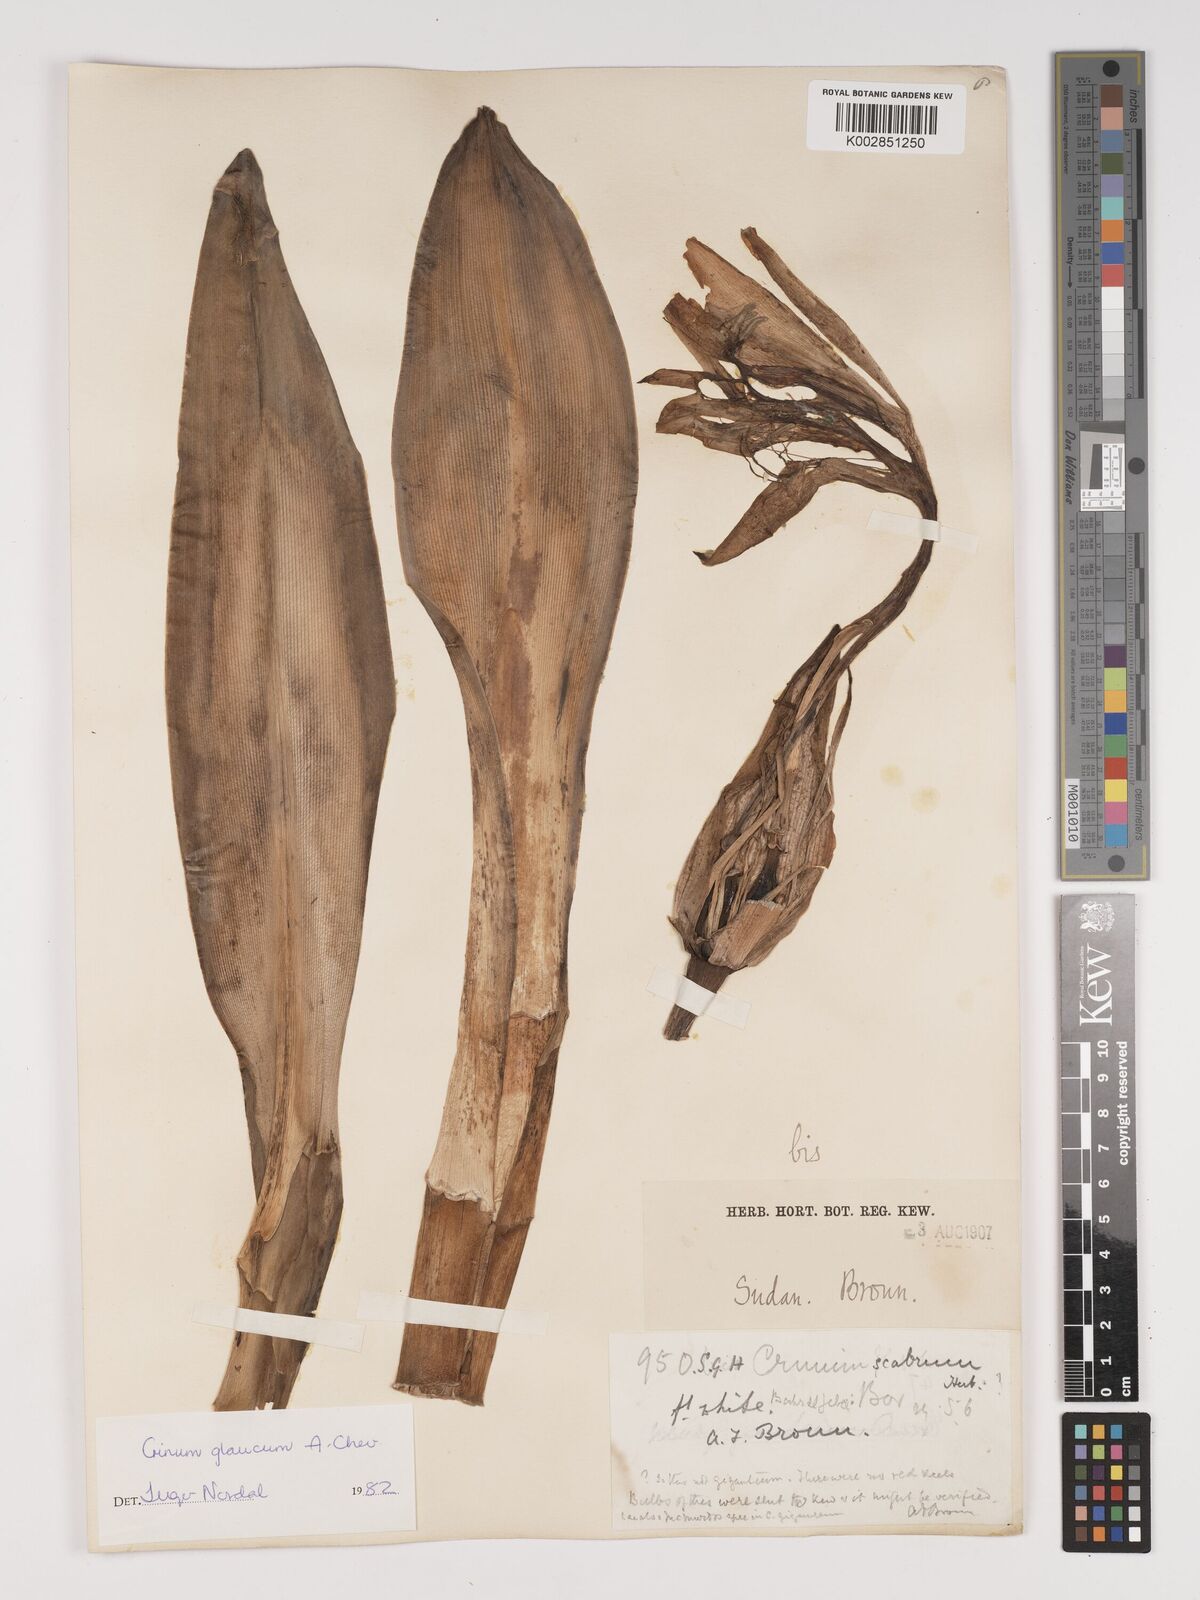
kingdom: Plantae
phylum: Tracheophyta
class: Liliopsida
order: Asparagales
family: Amaryllidaceae
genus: Crinum
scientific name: Crinum glaucum
